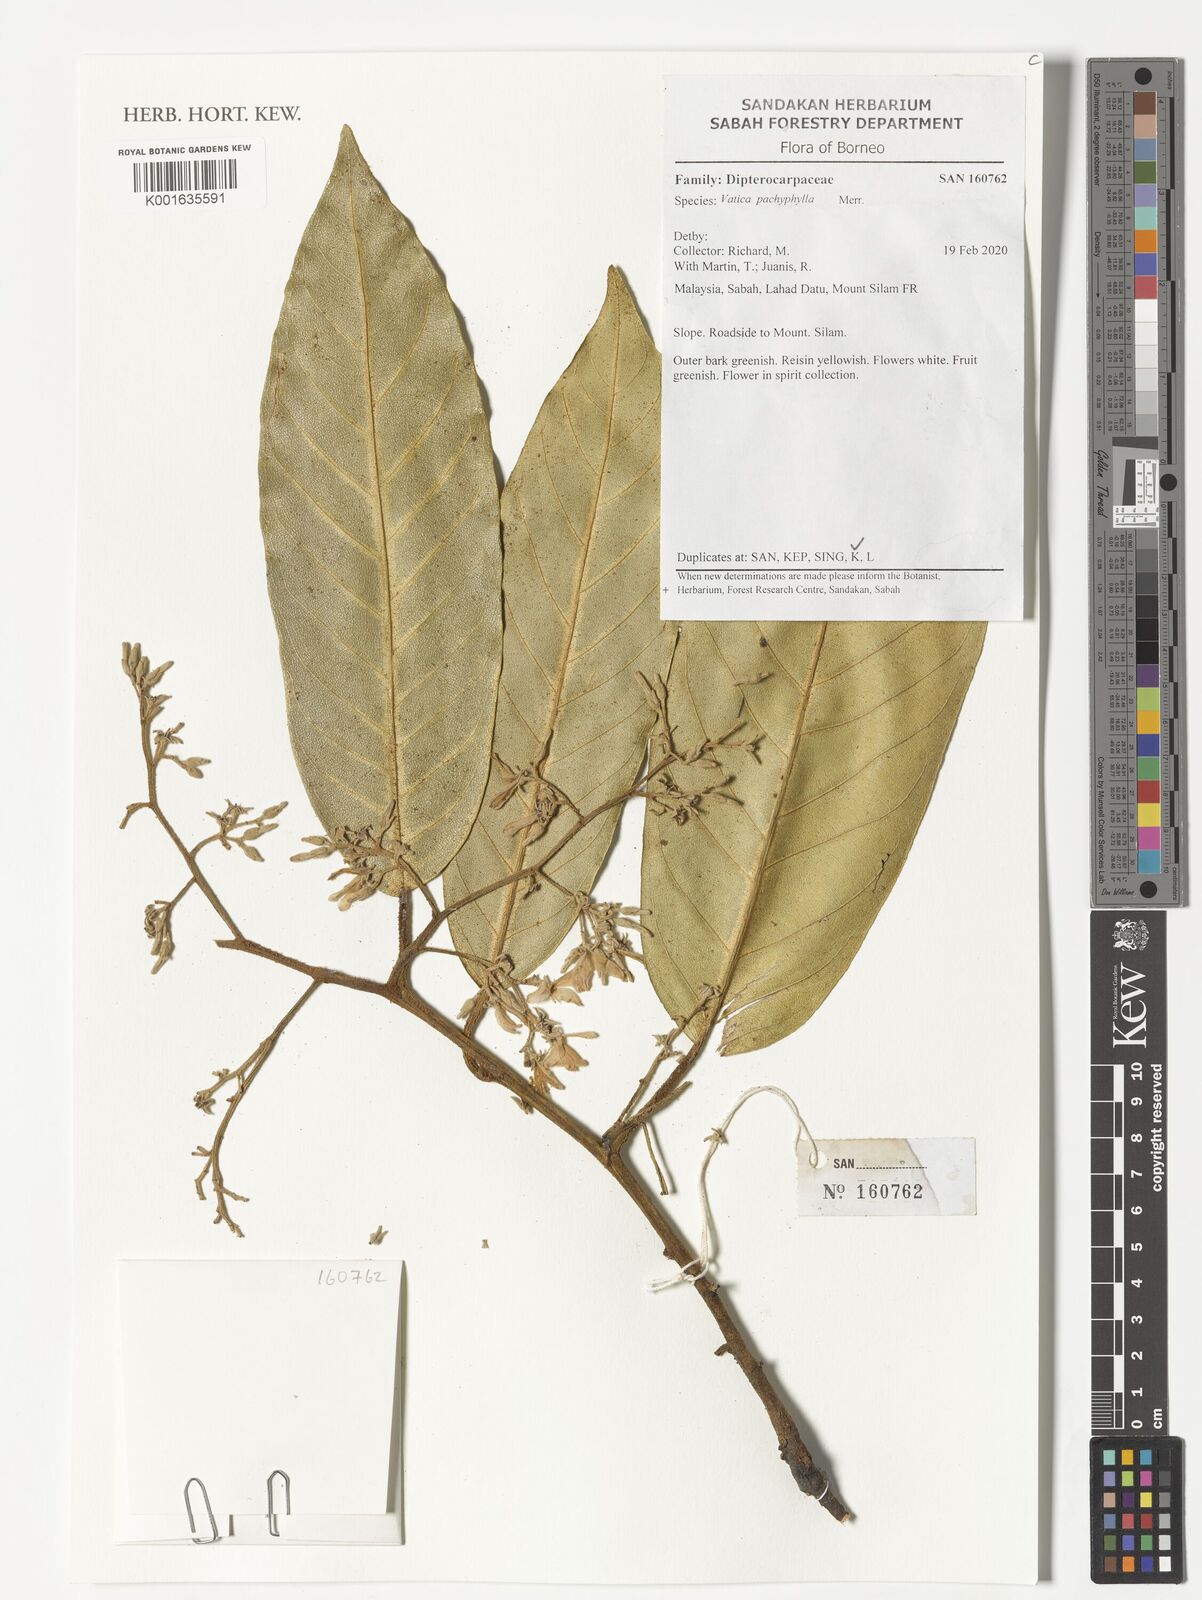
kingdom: Plantae
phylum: Tracheophyta
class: Magnoliopsida
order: Malvales
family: Dipterocarpaceae
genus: Vatica
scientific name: Vatica pachyphylla
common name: Thick-leaf narig
